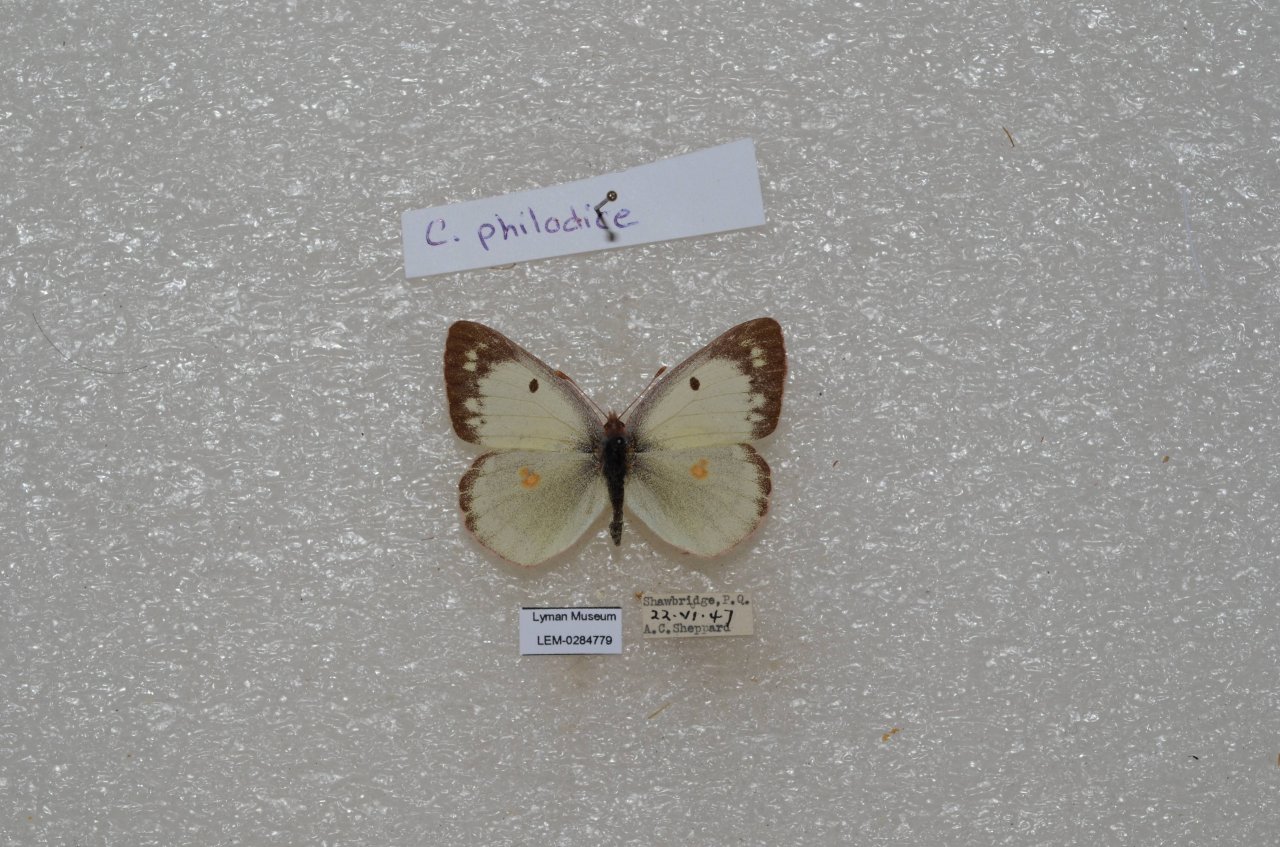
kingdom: Animalia
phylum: Arthropoda
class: Insecta
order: Lepidoptera
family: Pieridae
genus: Colias
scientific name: Colias philodice
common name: Clouded Sulphur
